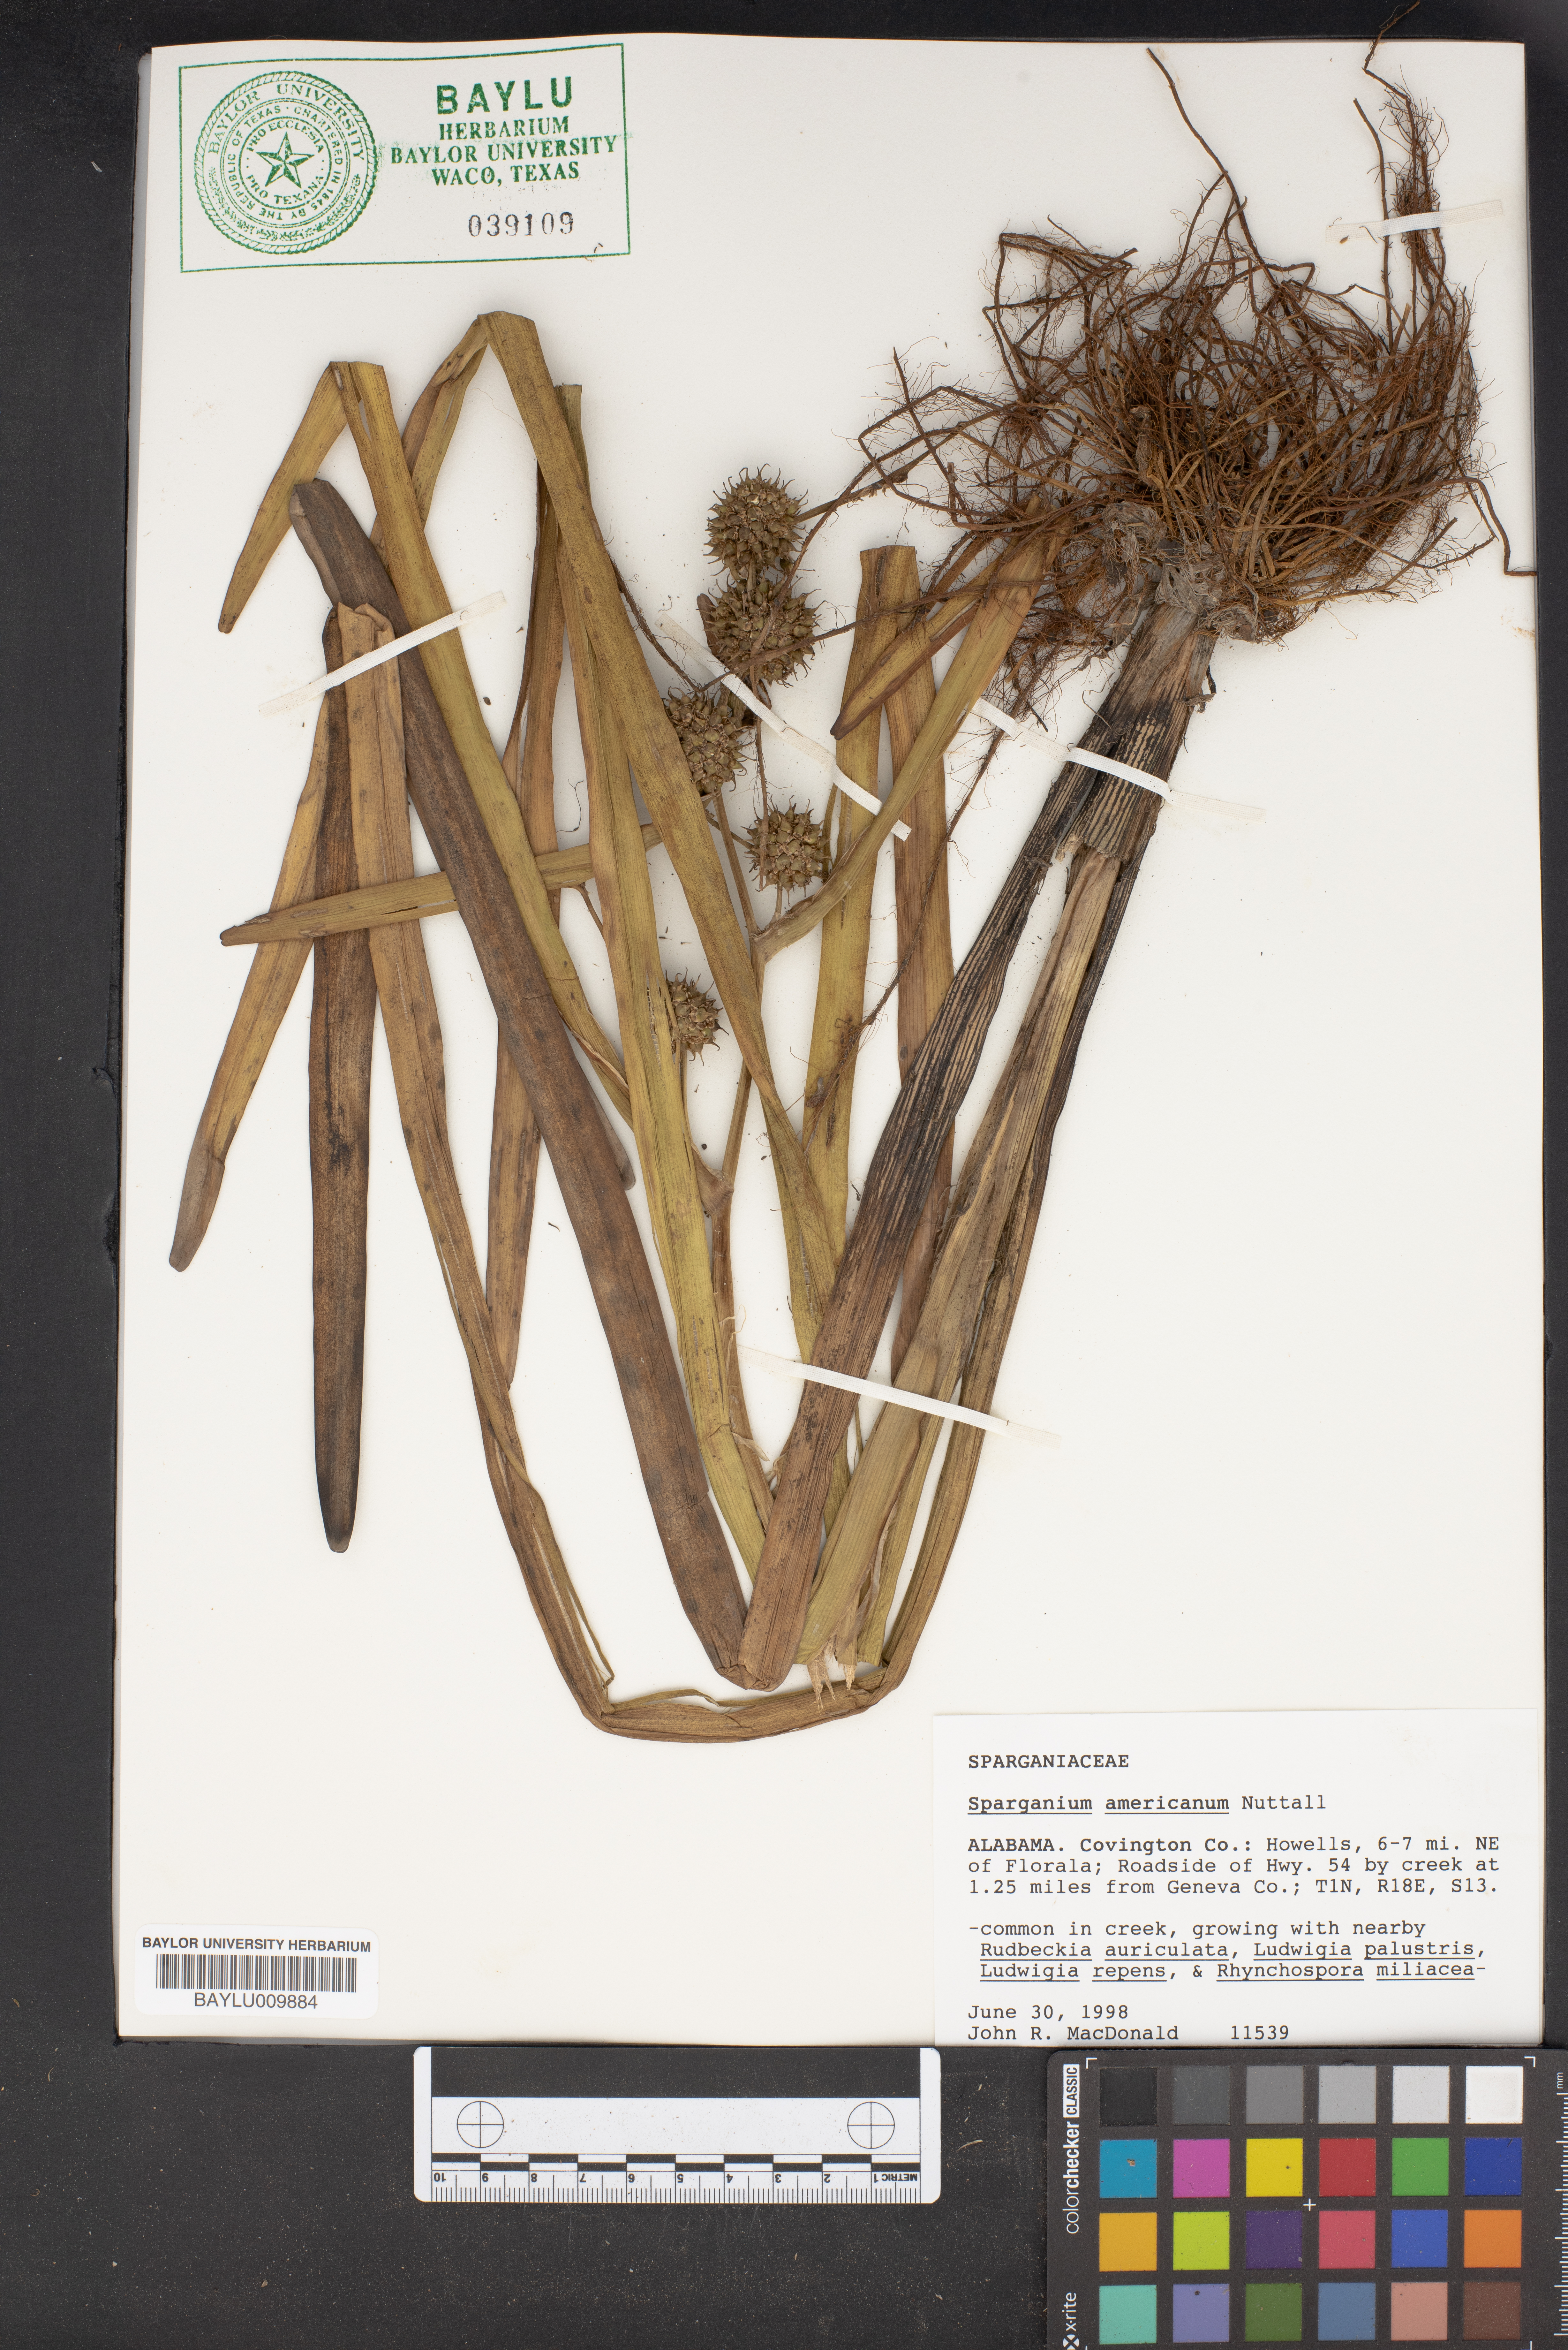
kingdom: Plantae
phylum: Tracheophyta
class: Liliopsida
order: Poales
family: Typhaceae
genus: Sparganium
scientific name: Sparganium americanum
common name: American burreed
